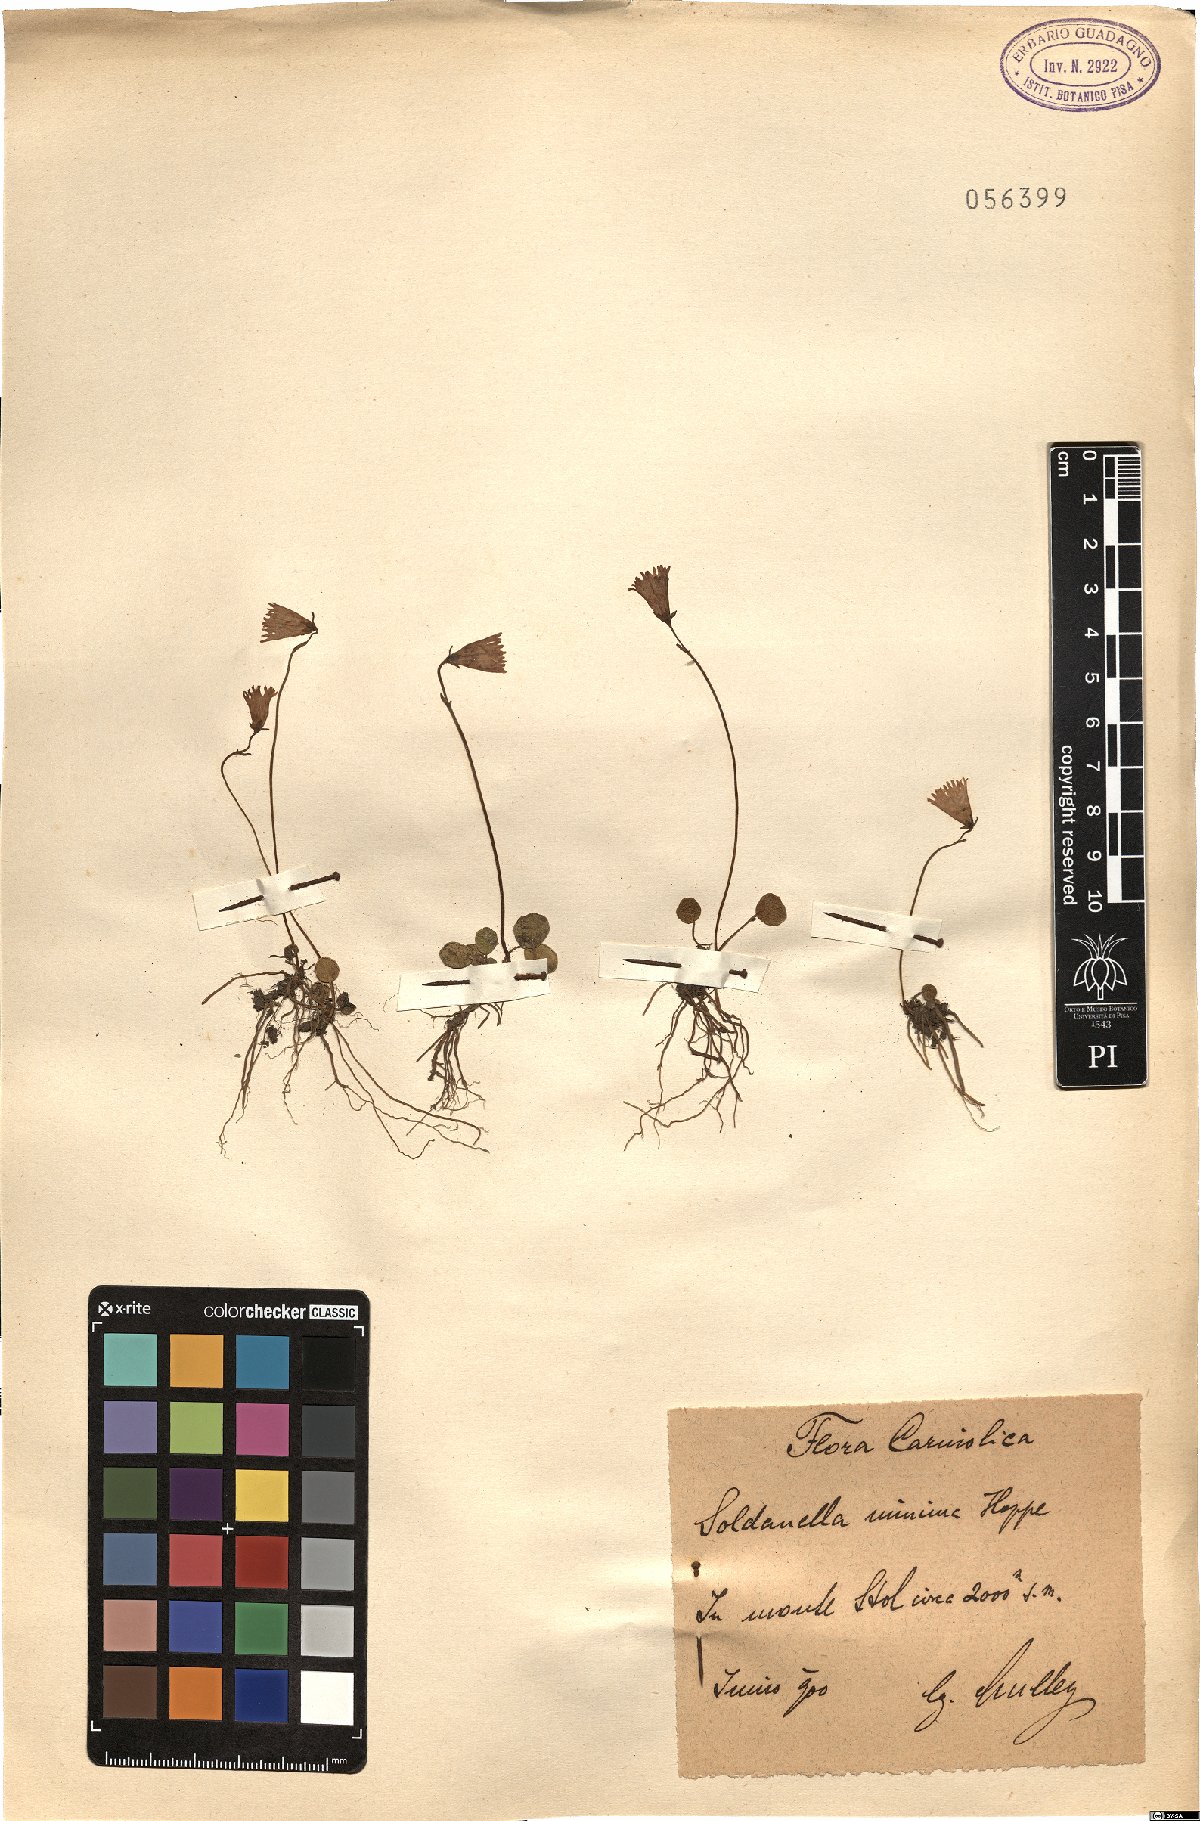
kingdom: Plantae
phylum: Tracheophyta
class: Magnoliopsida
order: Ericales
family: Primulaceae
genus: Soldanella
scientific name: Soldanella minima
